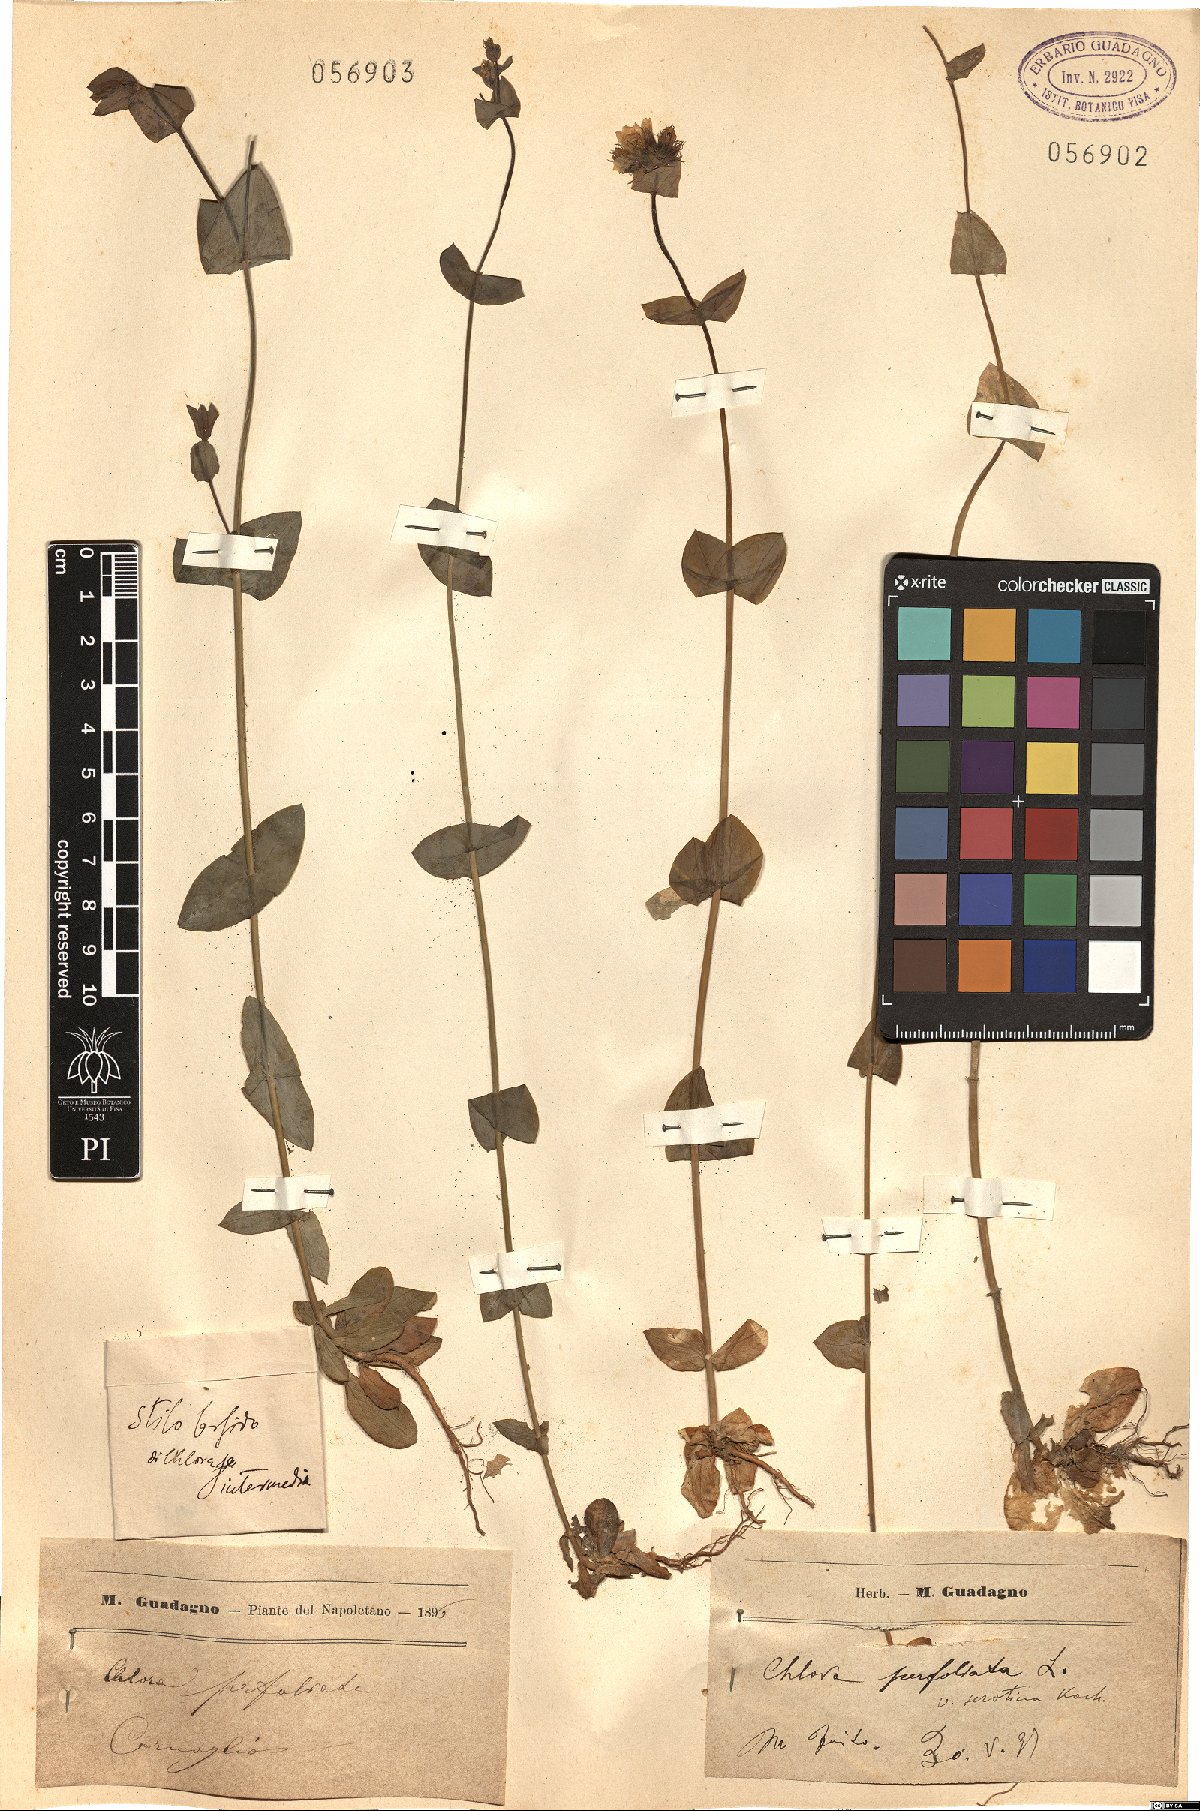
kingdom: Plantae
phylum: Tracheophyta
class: Magnoliopsida
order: Gentianales
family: Gentianaceae
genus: Blackstonia
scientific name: Blackstonia perfoliata
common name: Yellow-wort
